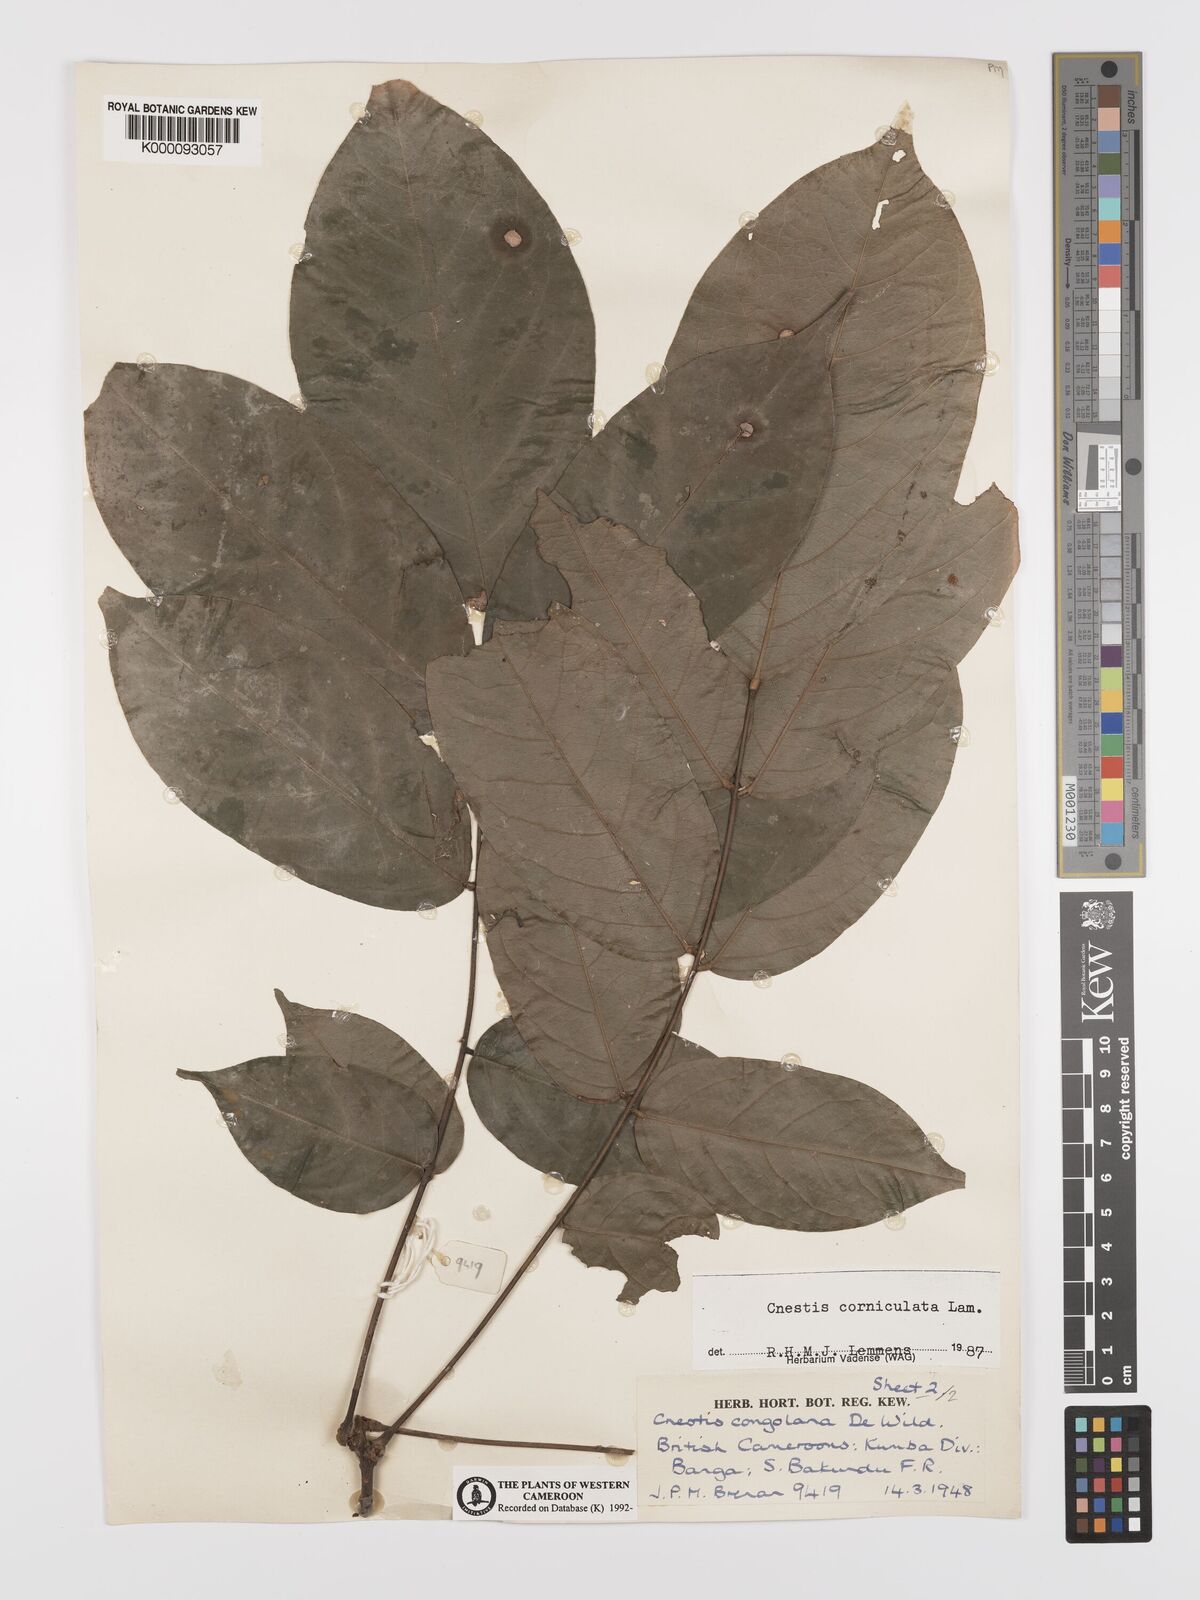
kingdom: Plantae
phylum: Tracheophyta
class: Magnoliopsida
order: Oxalidales
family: Connaraceae
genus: Cnestis
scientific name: Cnestis corniculata
